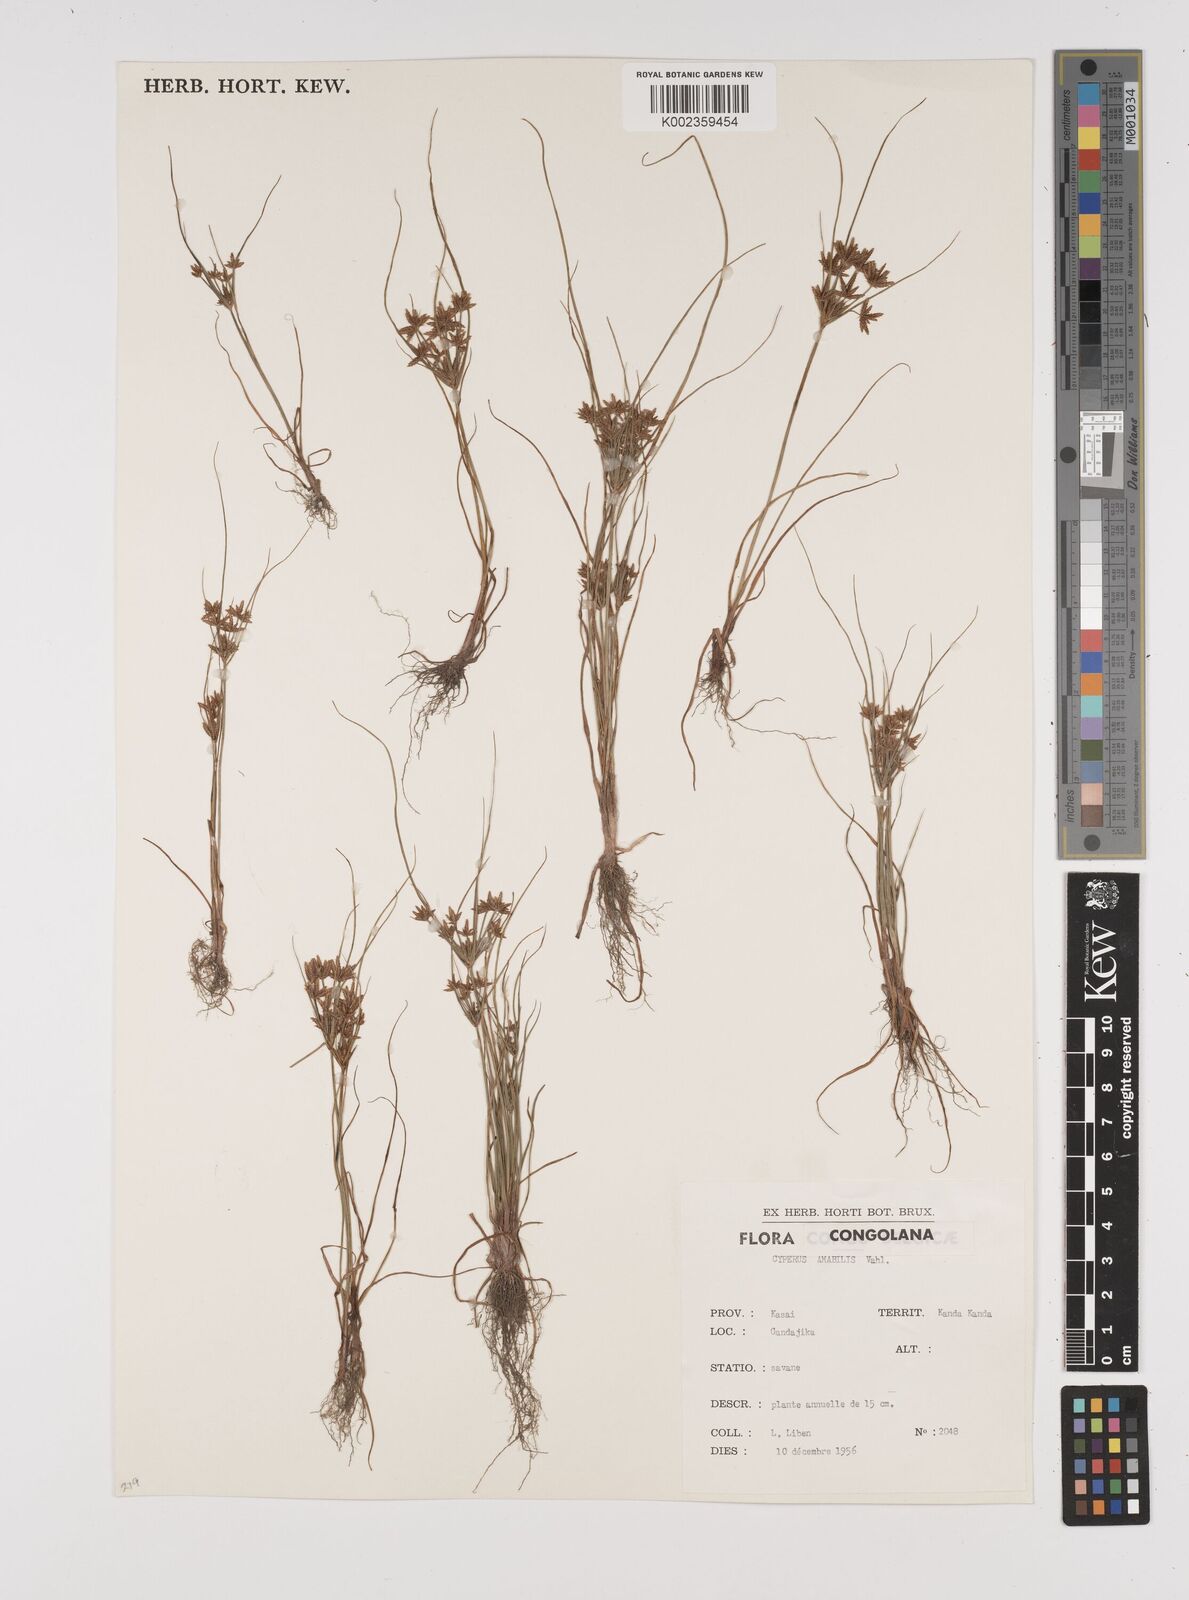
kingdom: Plantae
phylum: Tracheophyta
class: Liliopsida
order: Poales
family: Cyperaceae
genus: Cyperus
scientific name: Cyperus amabilis
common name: Foothill flat sedge
